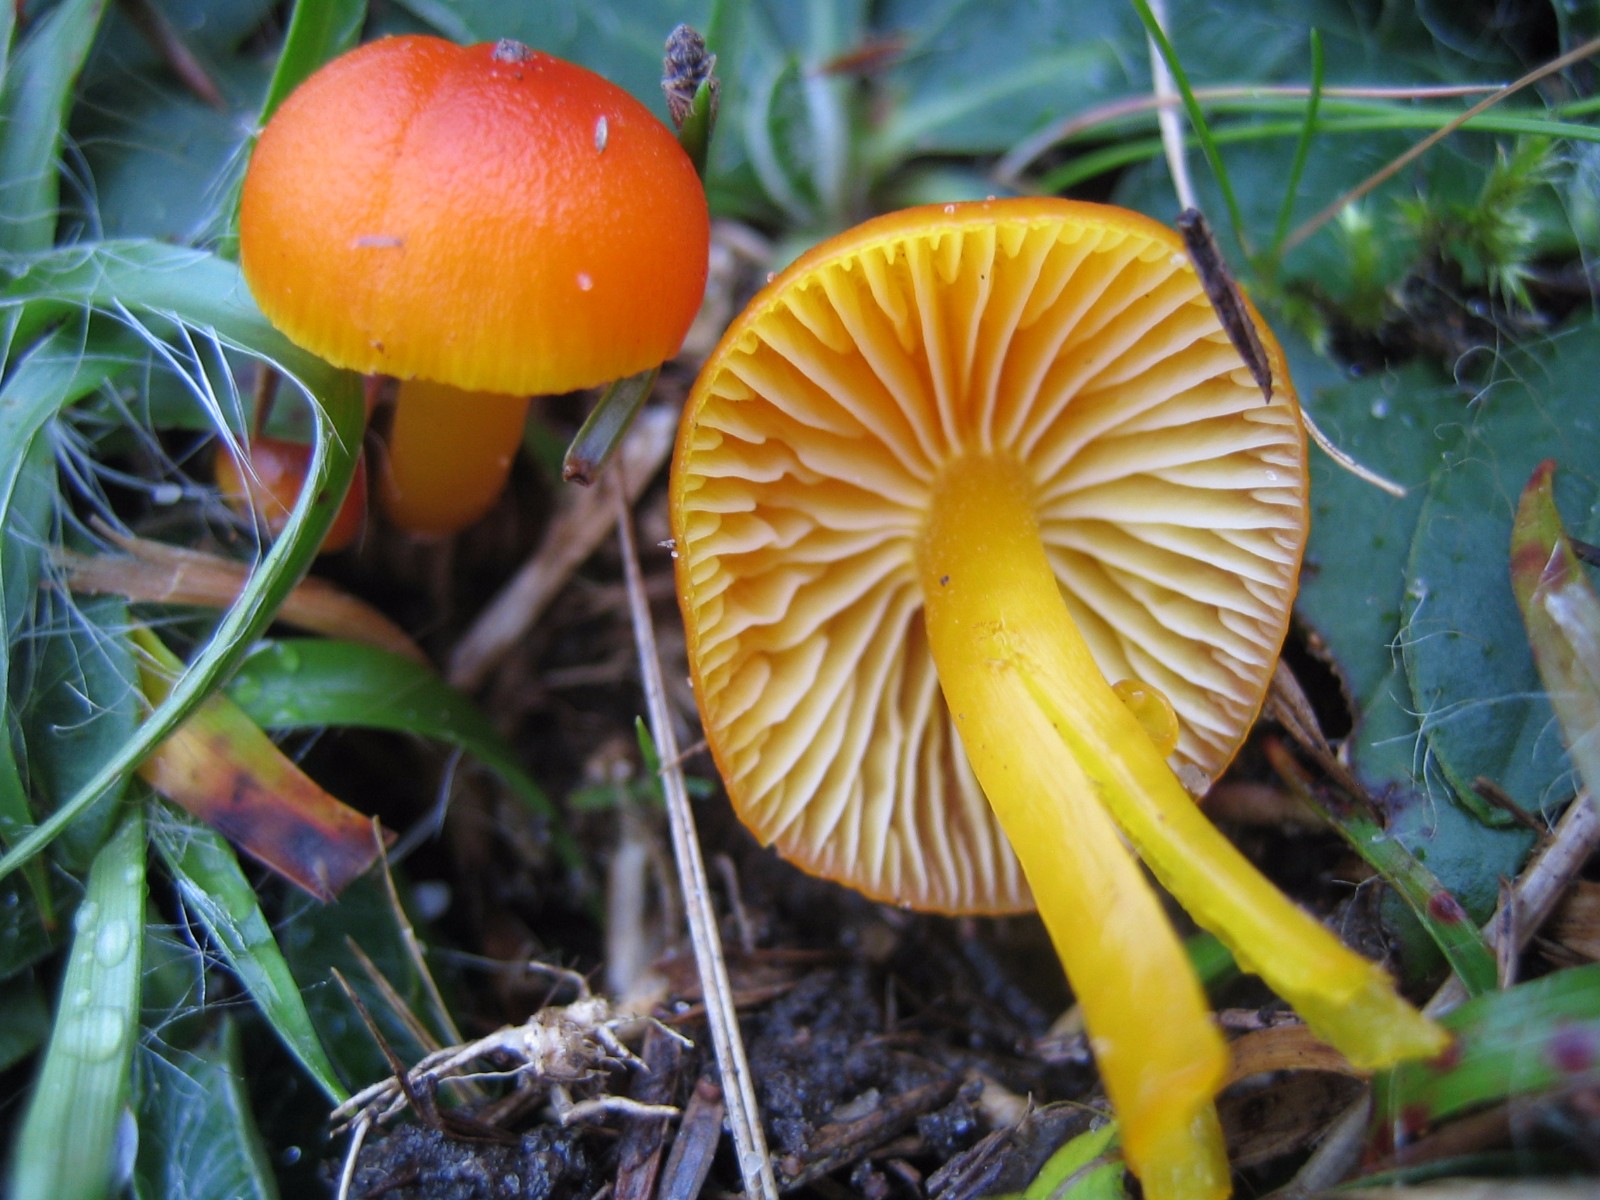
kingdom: Fungi
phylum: Basidiomycota
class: Agaricomycetes
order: Agaricales
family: Hygrophoraceae
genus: Hygrocybe
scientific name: Hygrocybe miniata
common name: mønje-vokshat
